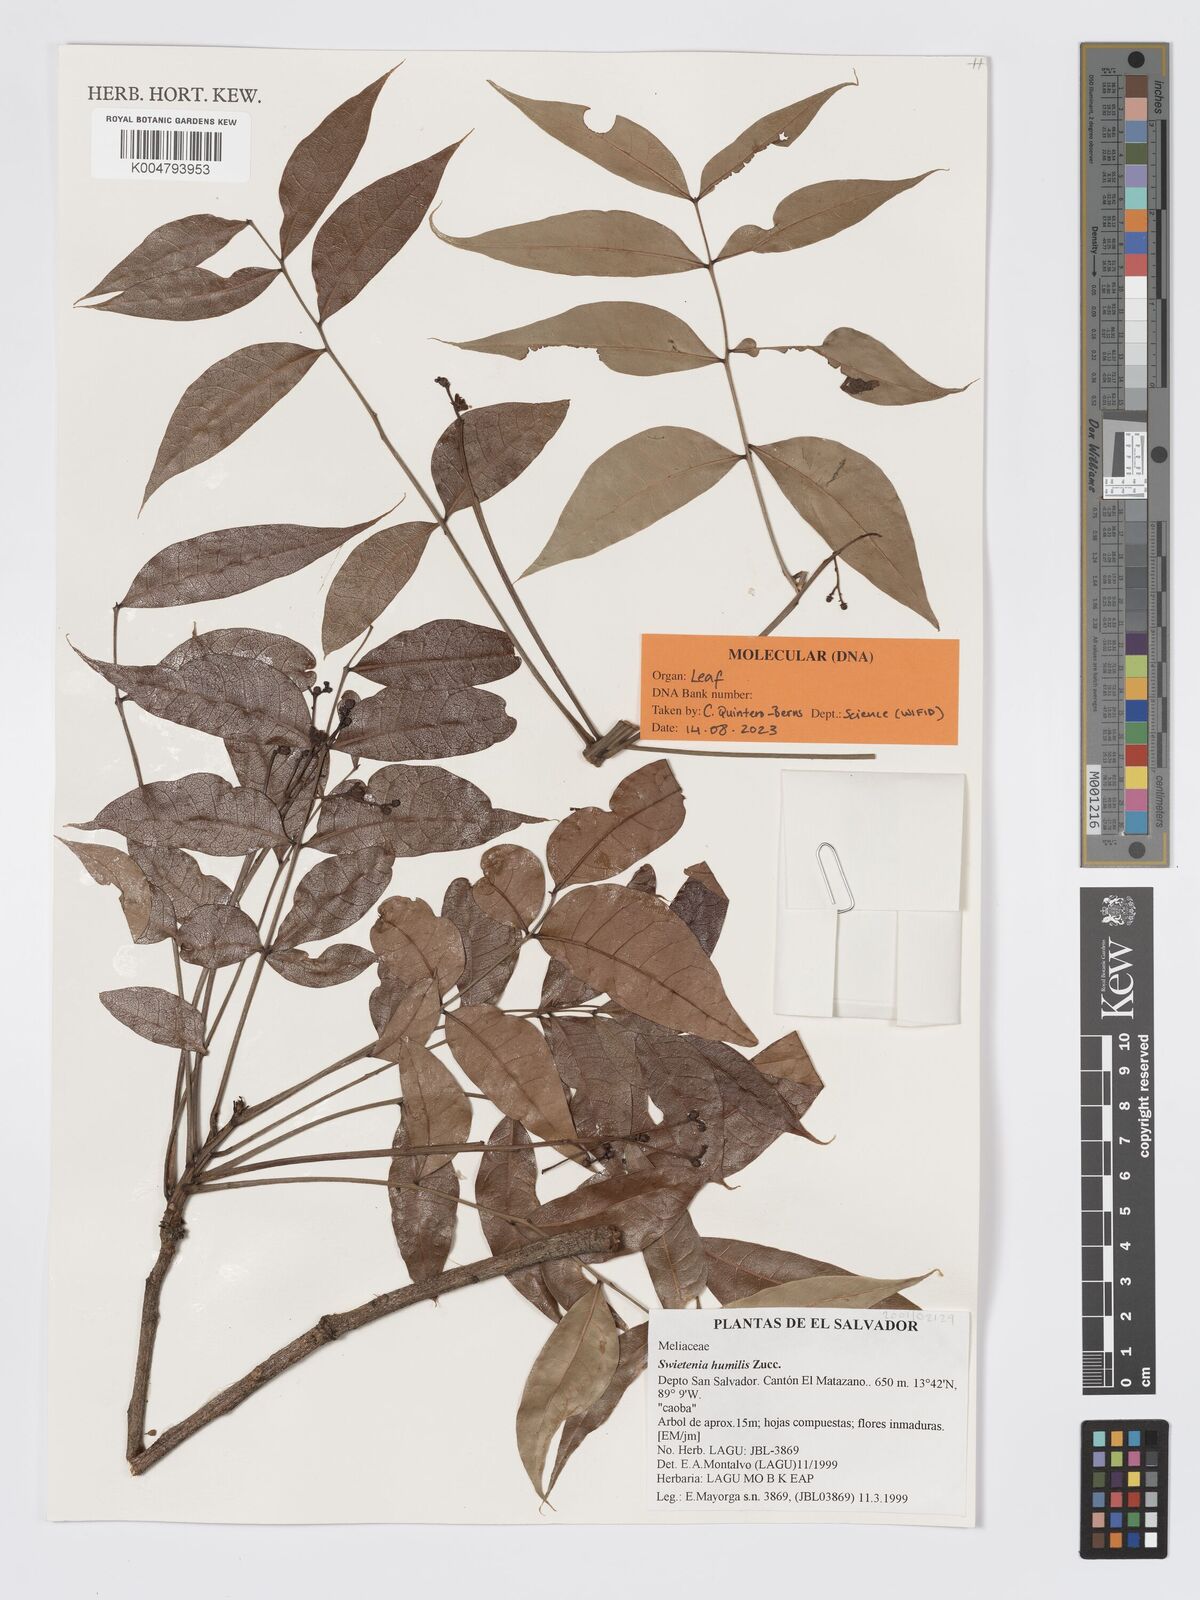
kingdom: Plantae
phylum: Tracheophyta
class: Magnoliopsida
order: Sapindales
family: Meliaceae
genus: Swietenia
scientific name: Swietenia humilis
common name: Pacific coast mahogany
